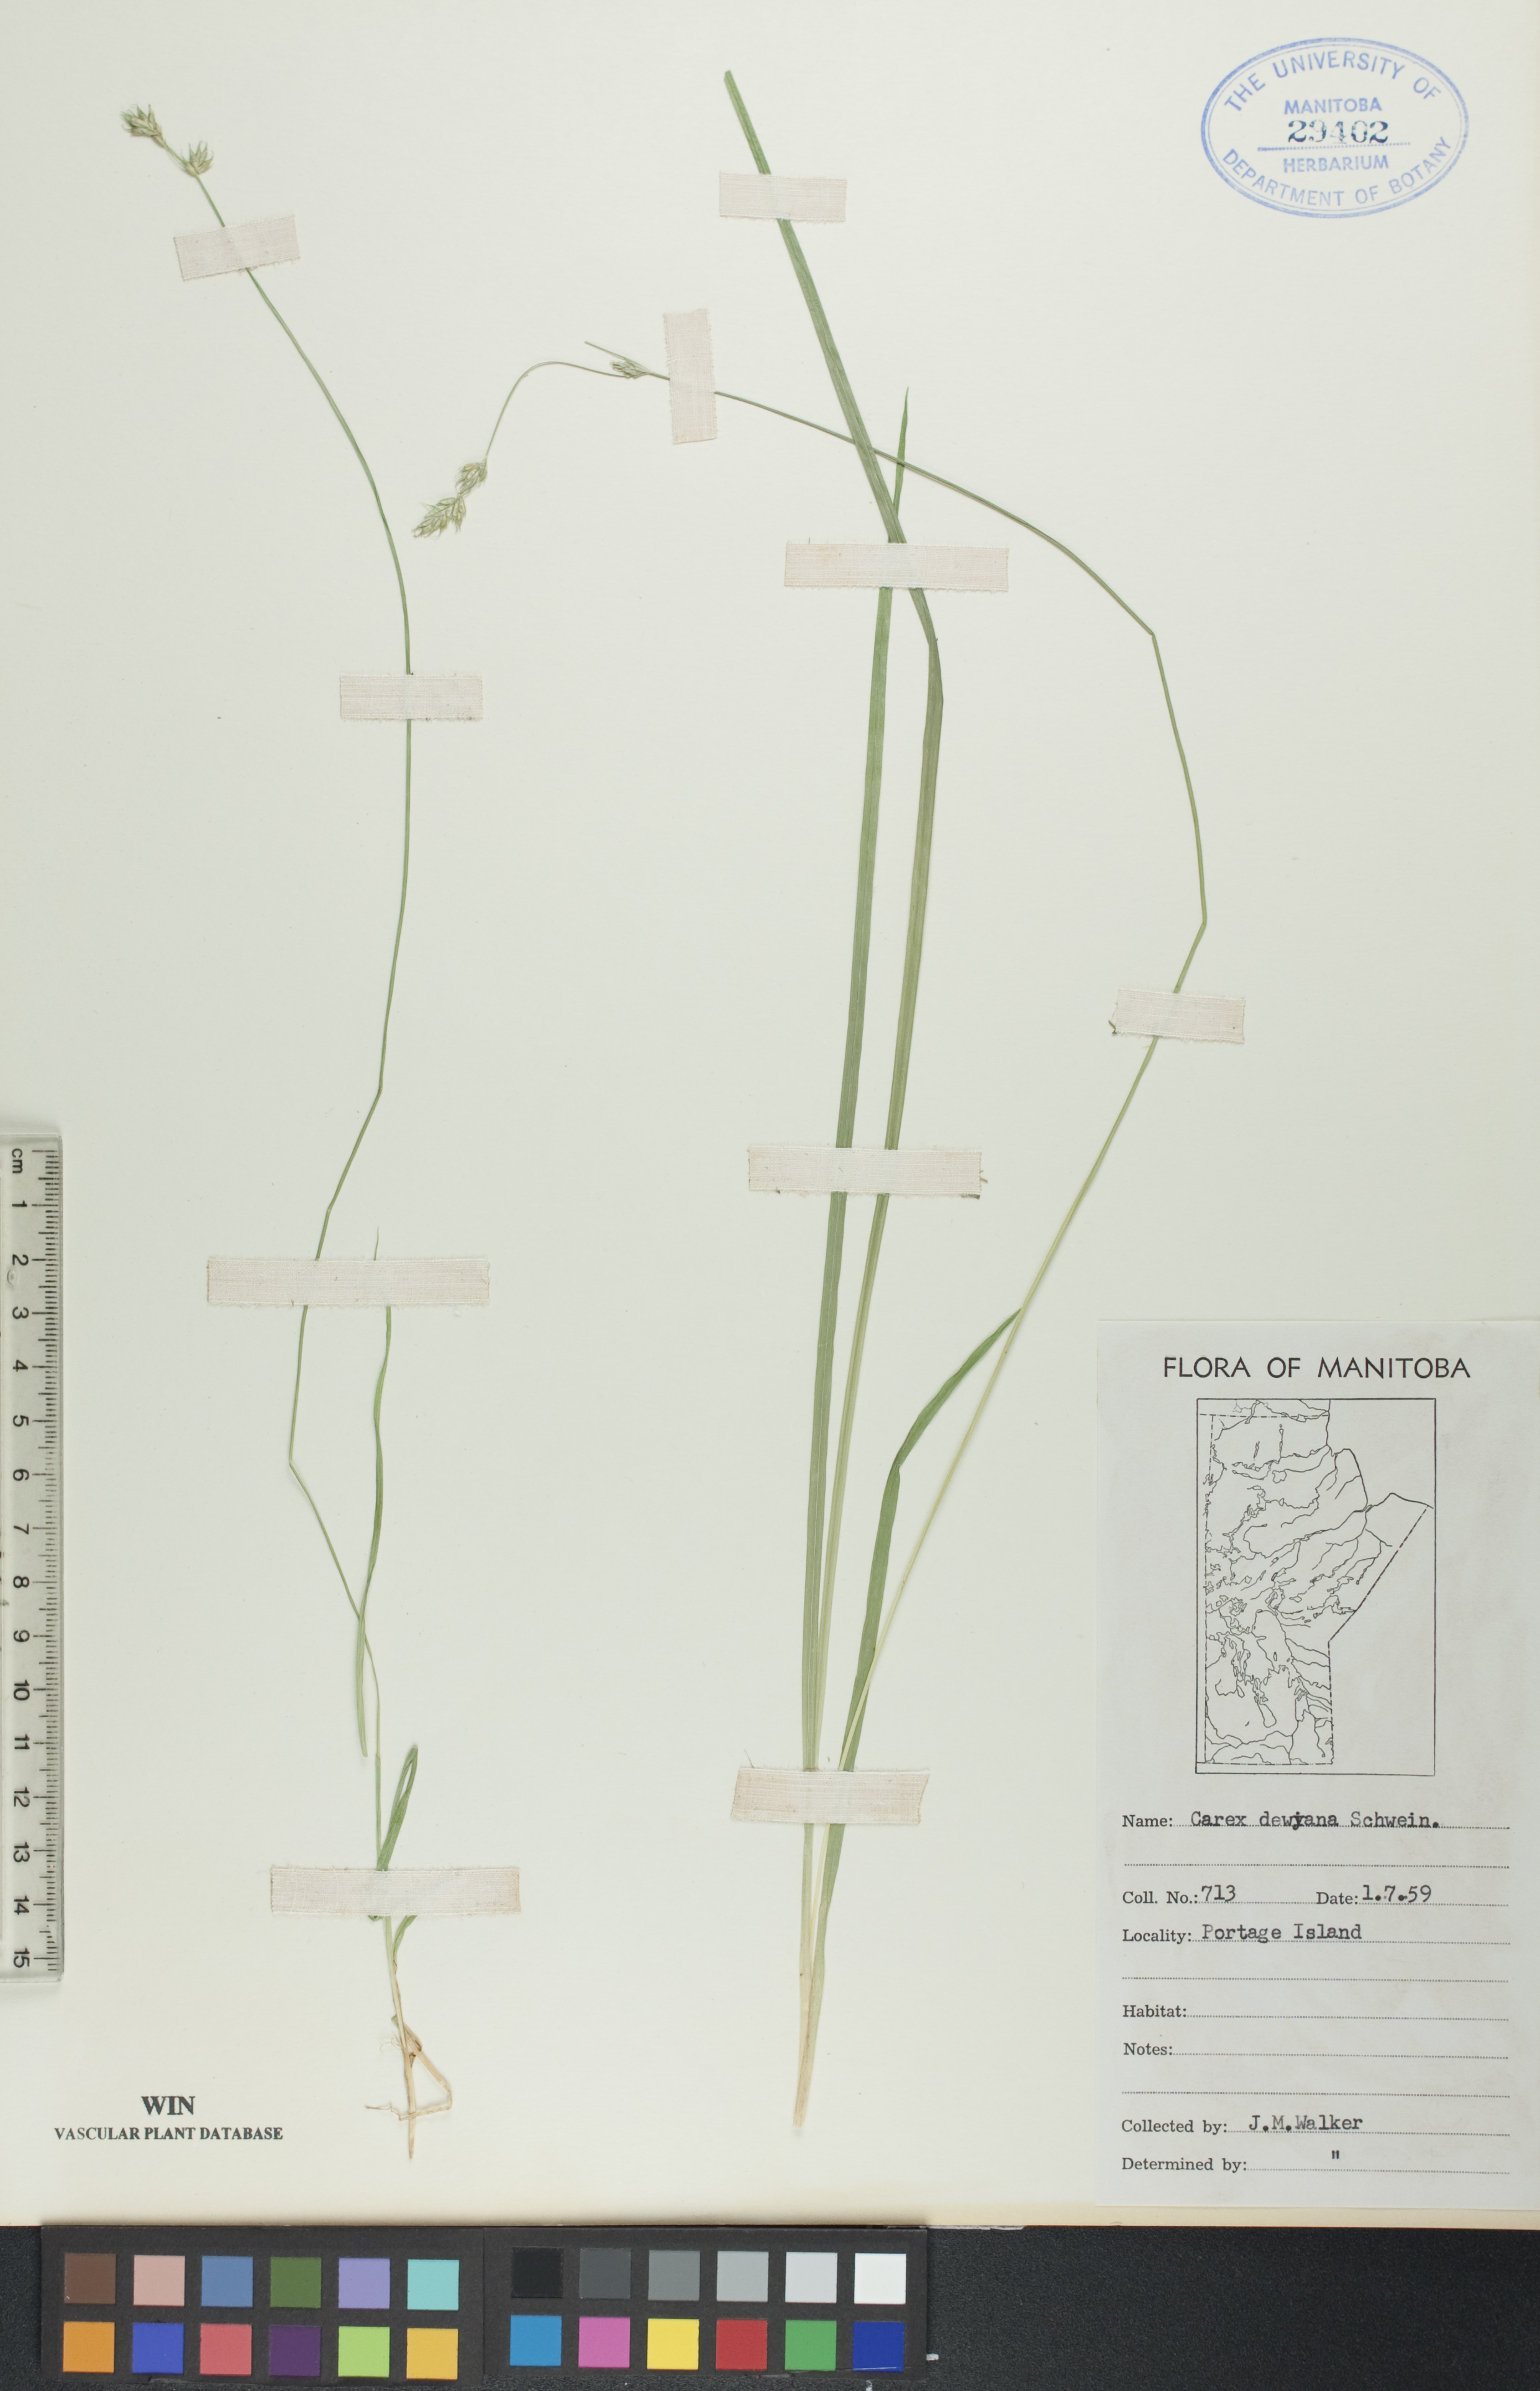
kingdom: Plantae
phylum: Tracheophyta
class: Liliopsida
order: Poales
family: Cyperaceae
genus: Carex
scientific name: Carex deweyana
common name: Dewey's sedge
